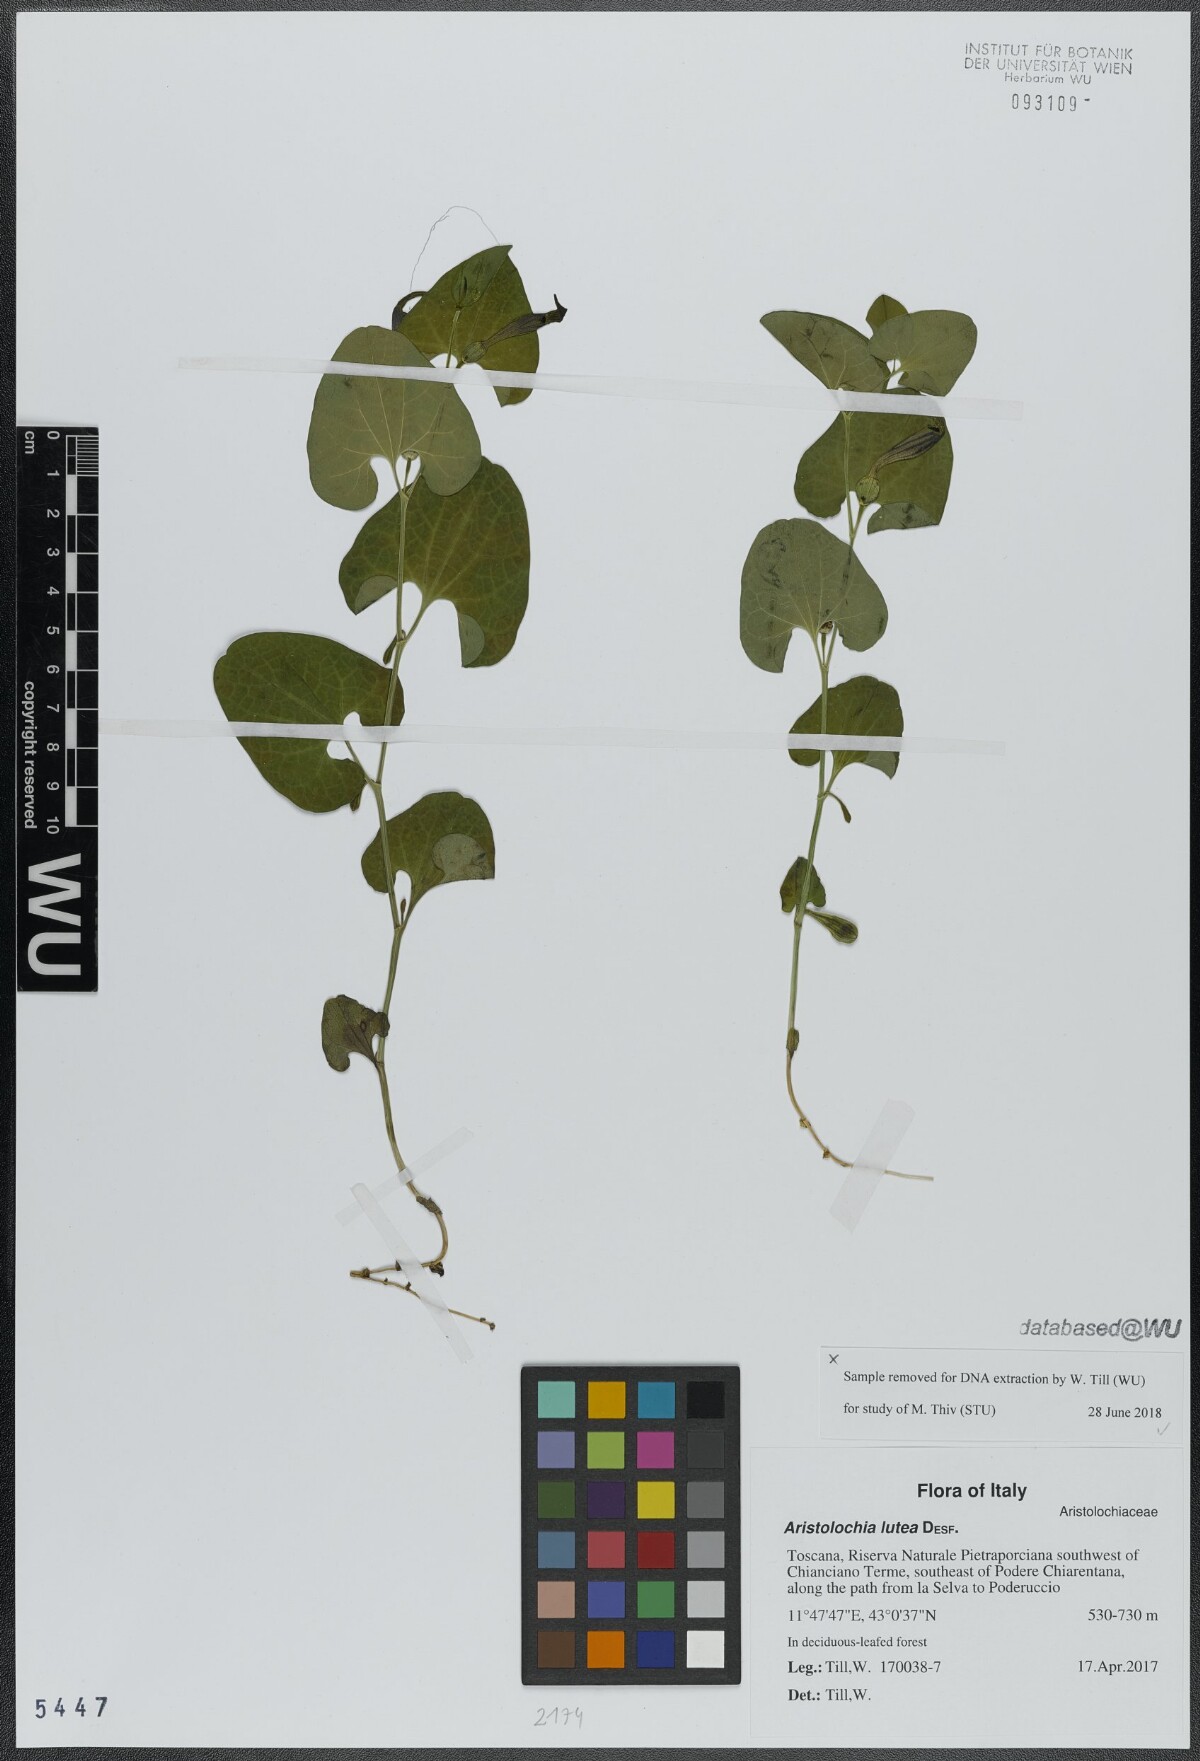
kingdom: Plantae
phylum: Tracheophyta
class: Magnoliopsida
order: Piperales
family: Aristolochiaceae
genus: Aristolochia
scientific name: Aristolochia lutea
